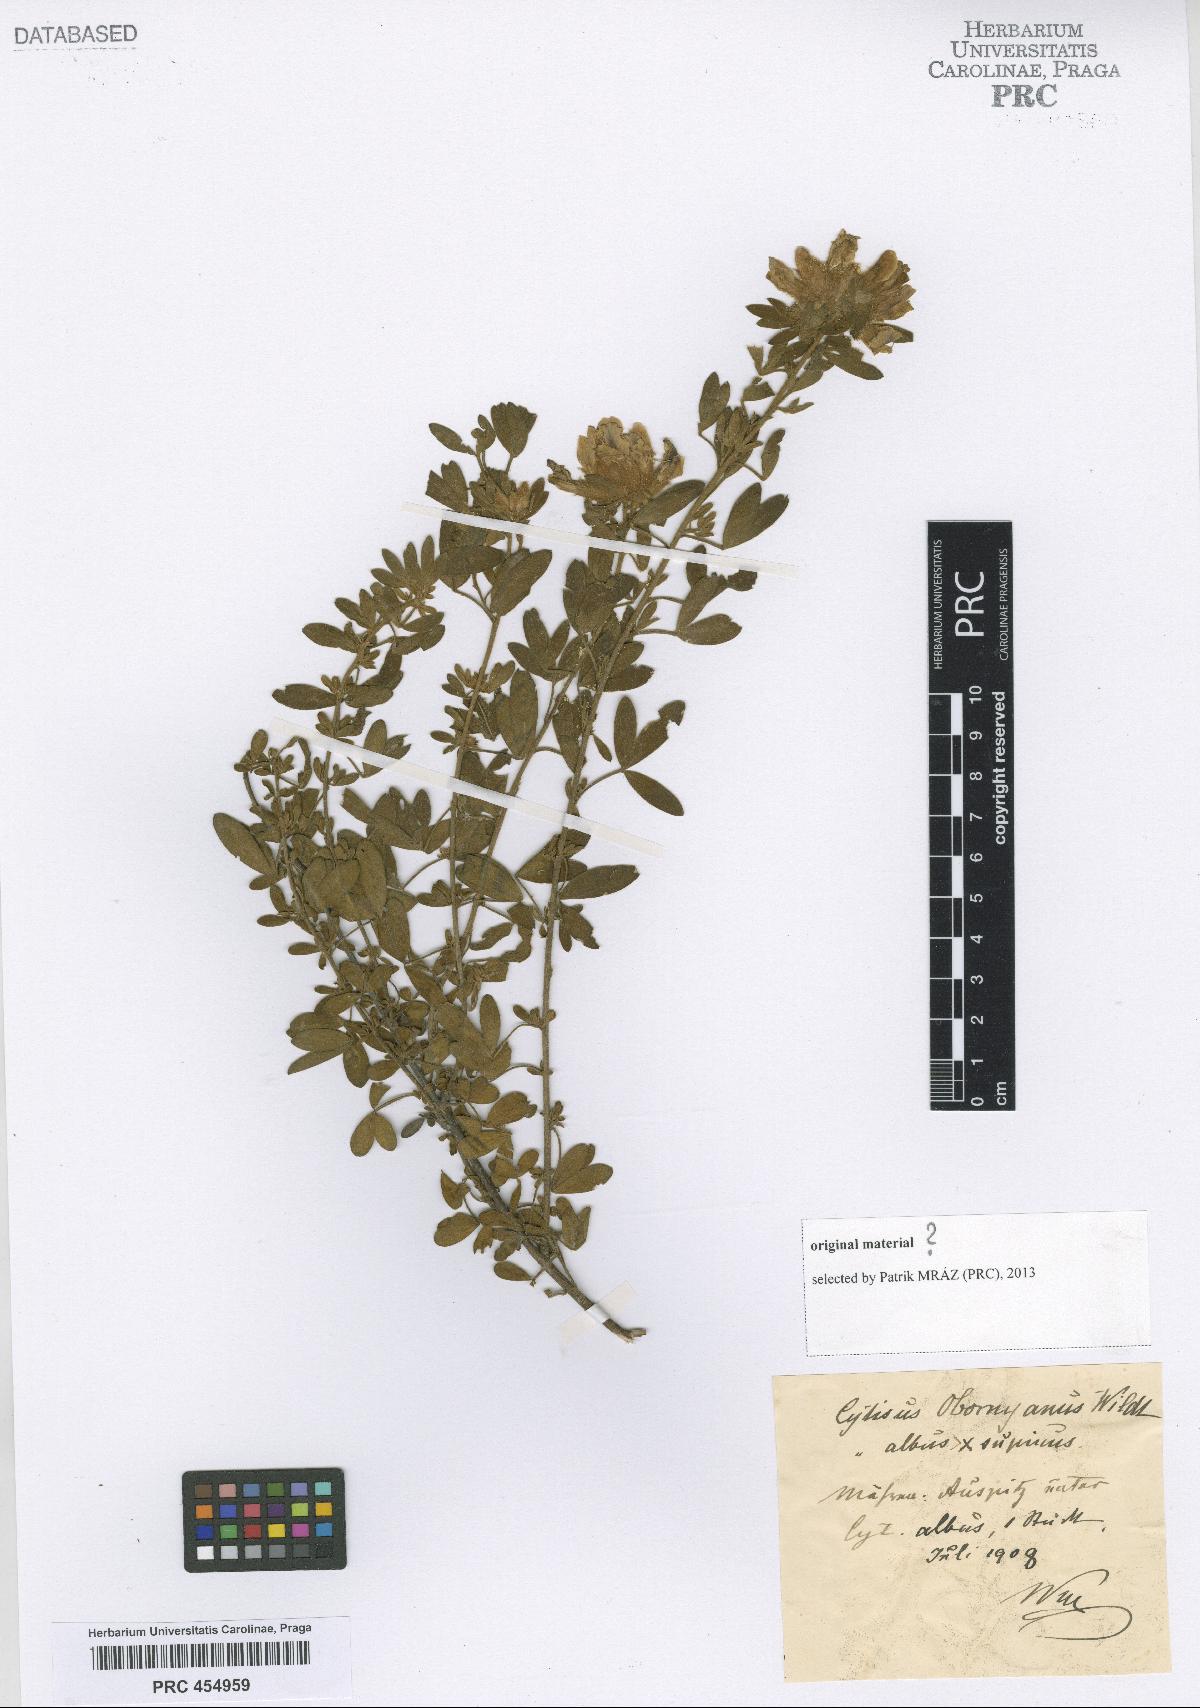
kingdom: Plantae
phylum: Tracheophyta
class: Magnoliopsida
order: Fabales
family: Fabaceae
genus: Cytisus
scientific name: Cytisus
